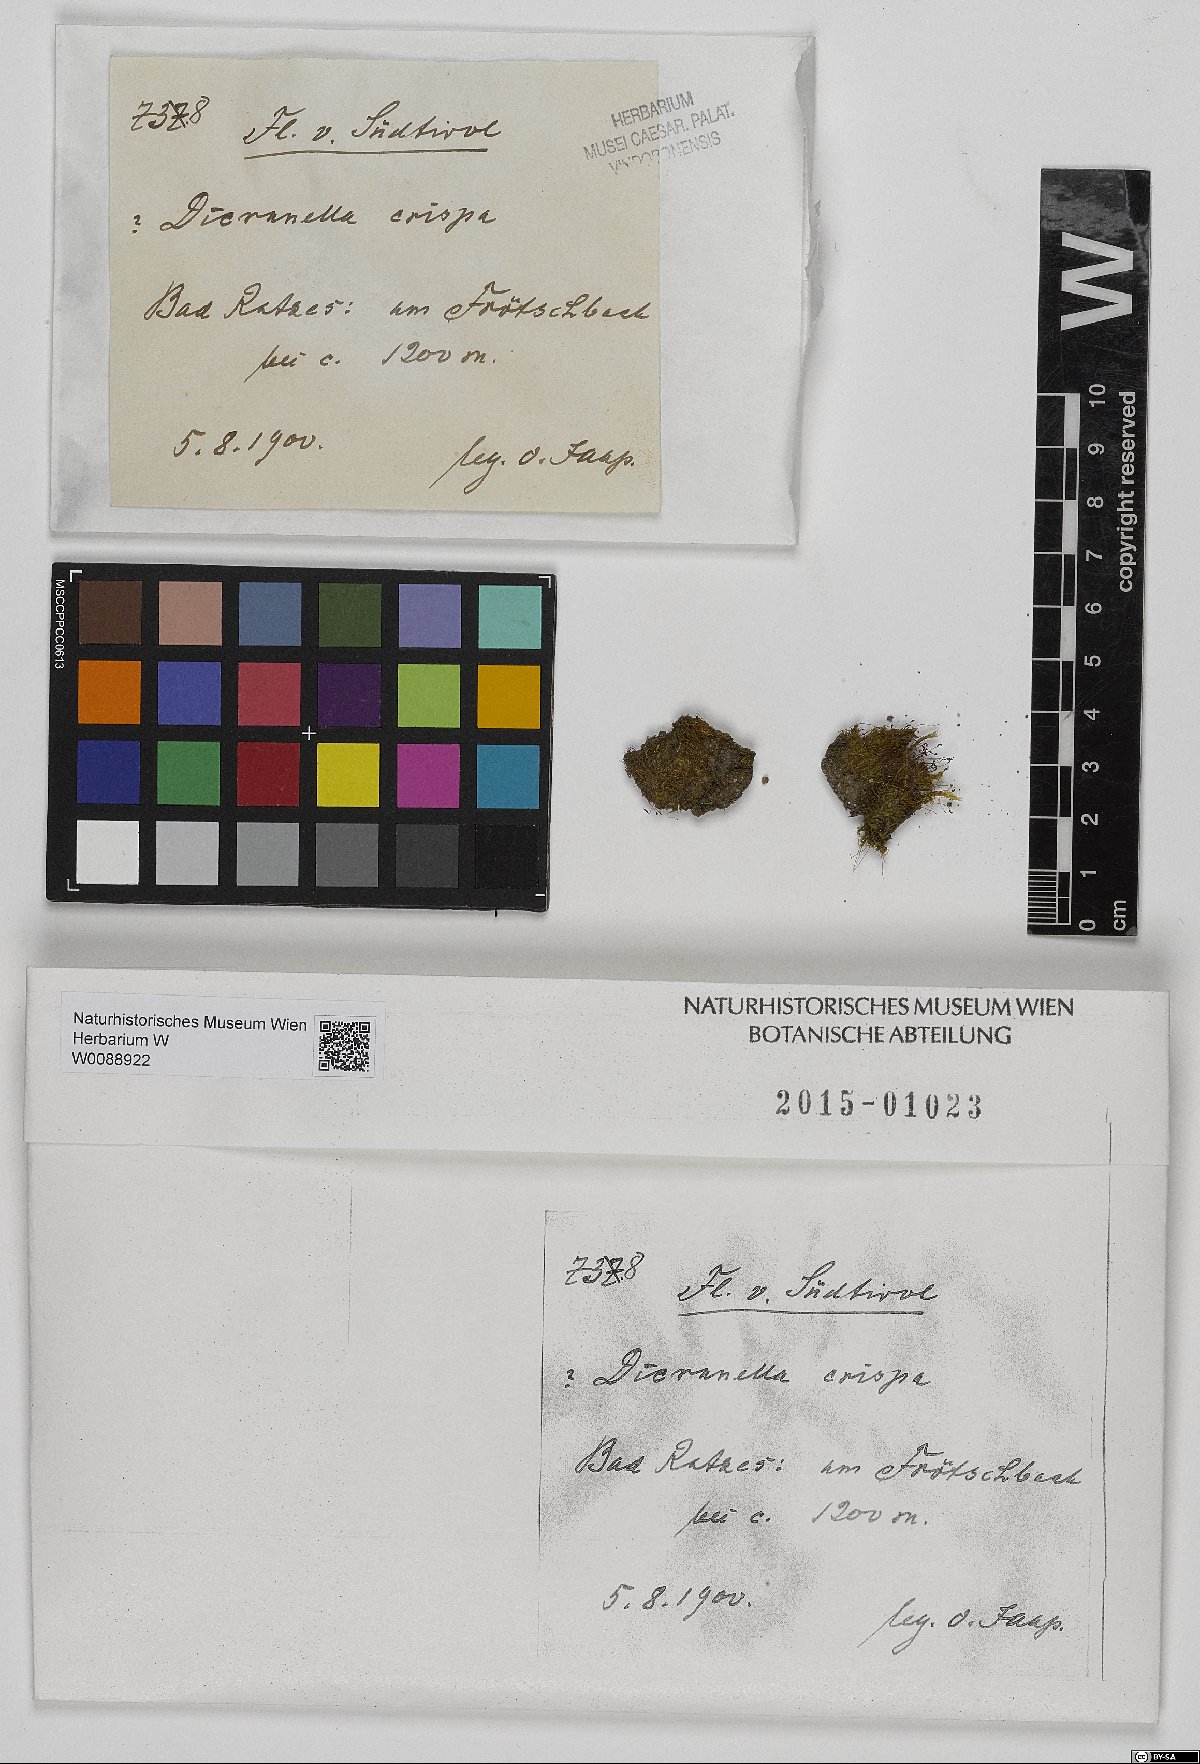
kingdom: Plantae
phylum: Bryophyta
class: Bryopsida
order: Dicranales
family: Dicranellaceae
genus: Dicranella
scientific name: Dicranella varia
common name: Variable forklet moss
